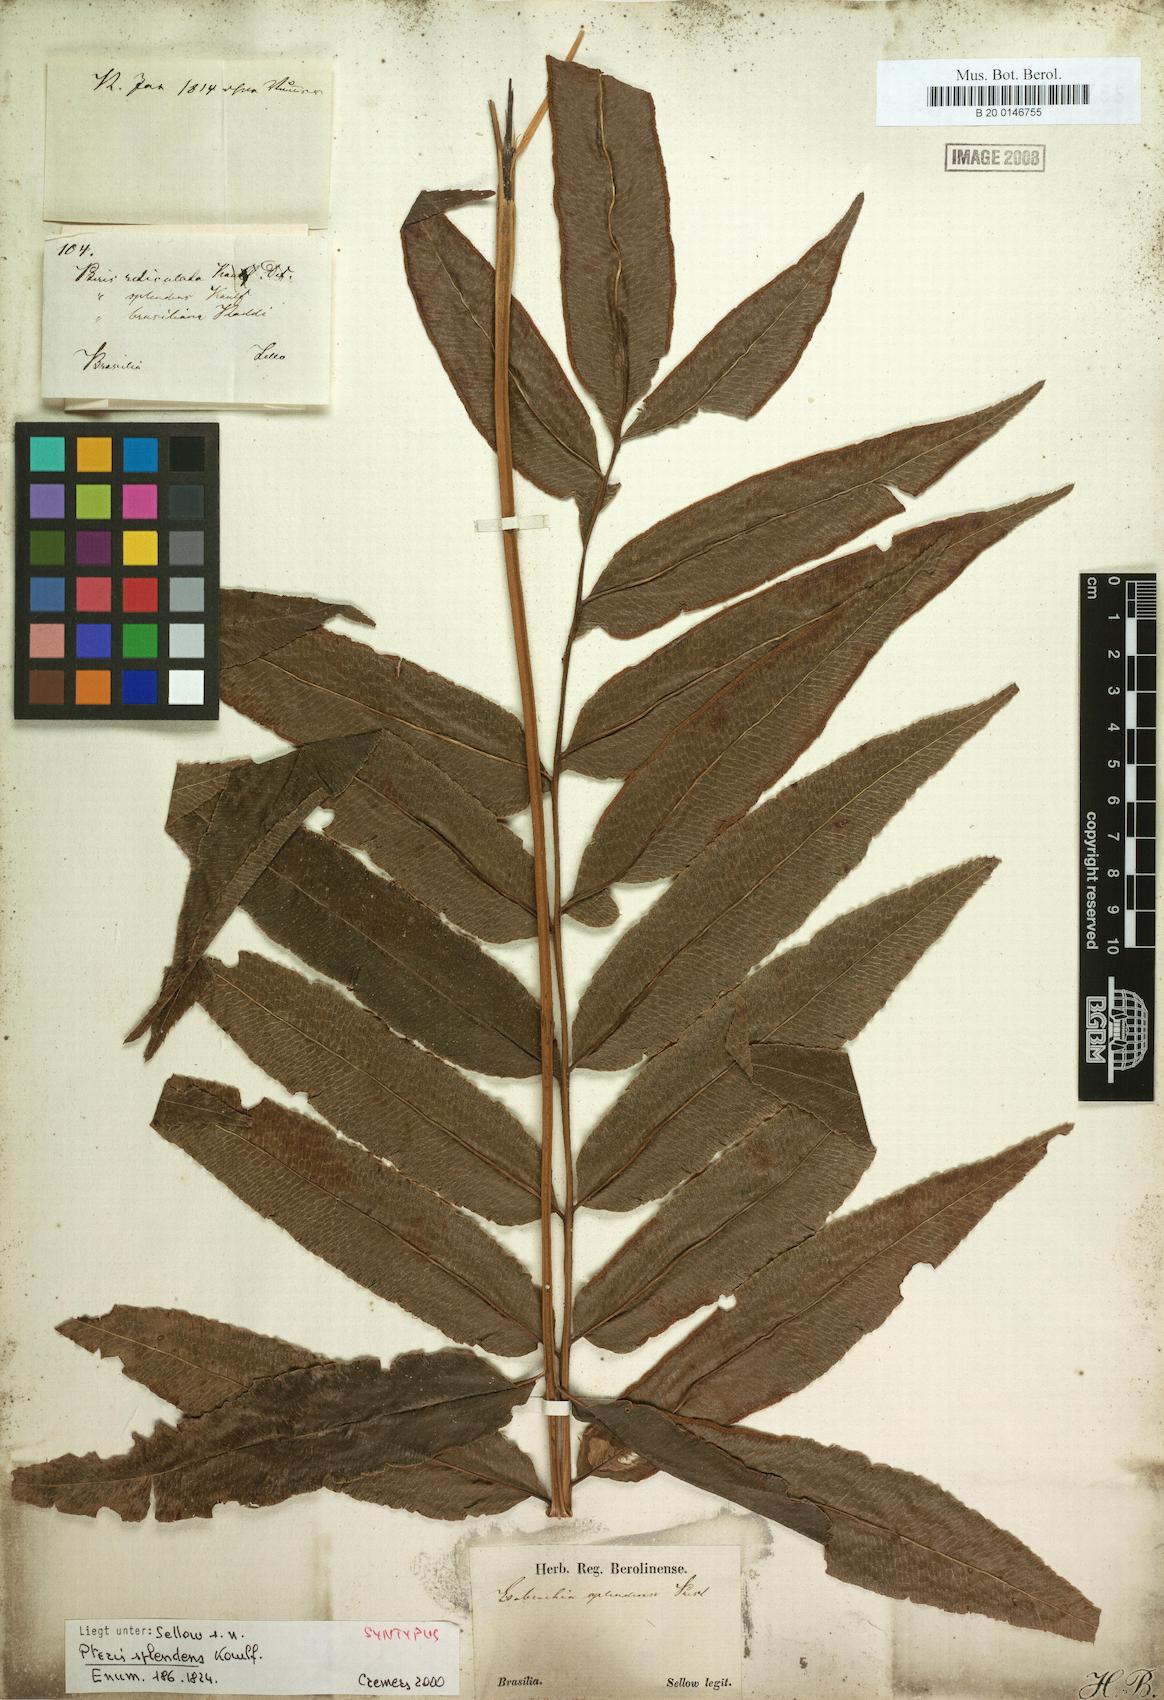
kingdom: Plantae
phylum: Tracheophyta
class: Polypodiopsida
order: Polypodiales
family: Pteridaceae
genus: Pteris
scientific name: Pteris splendens
